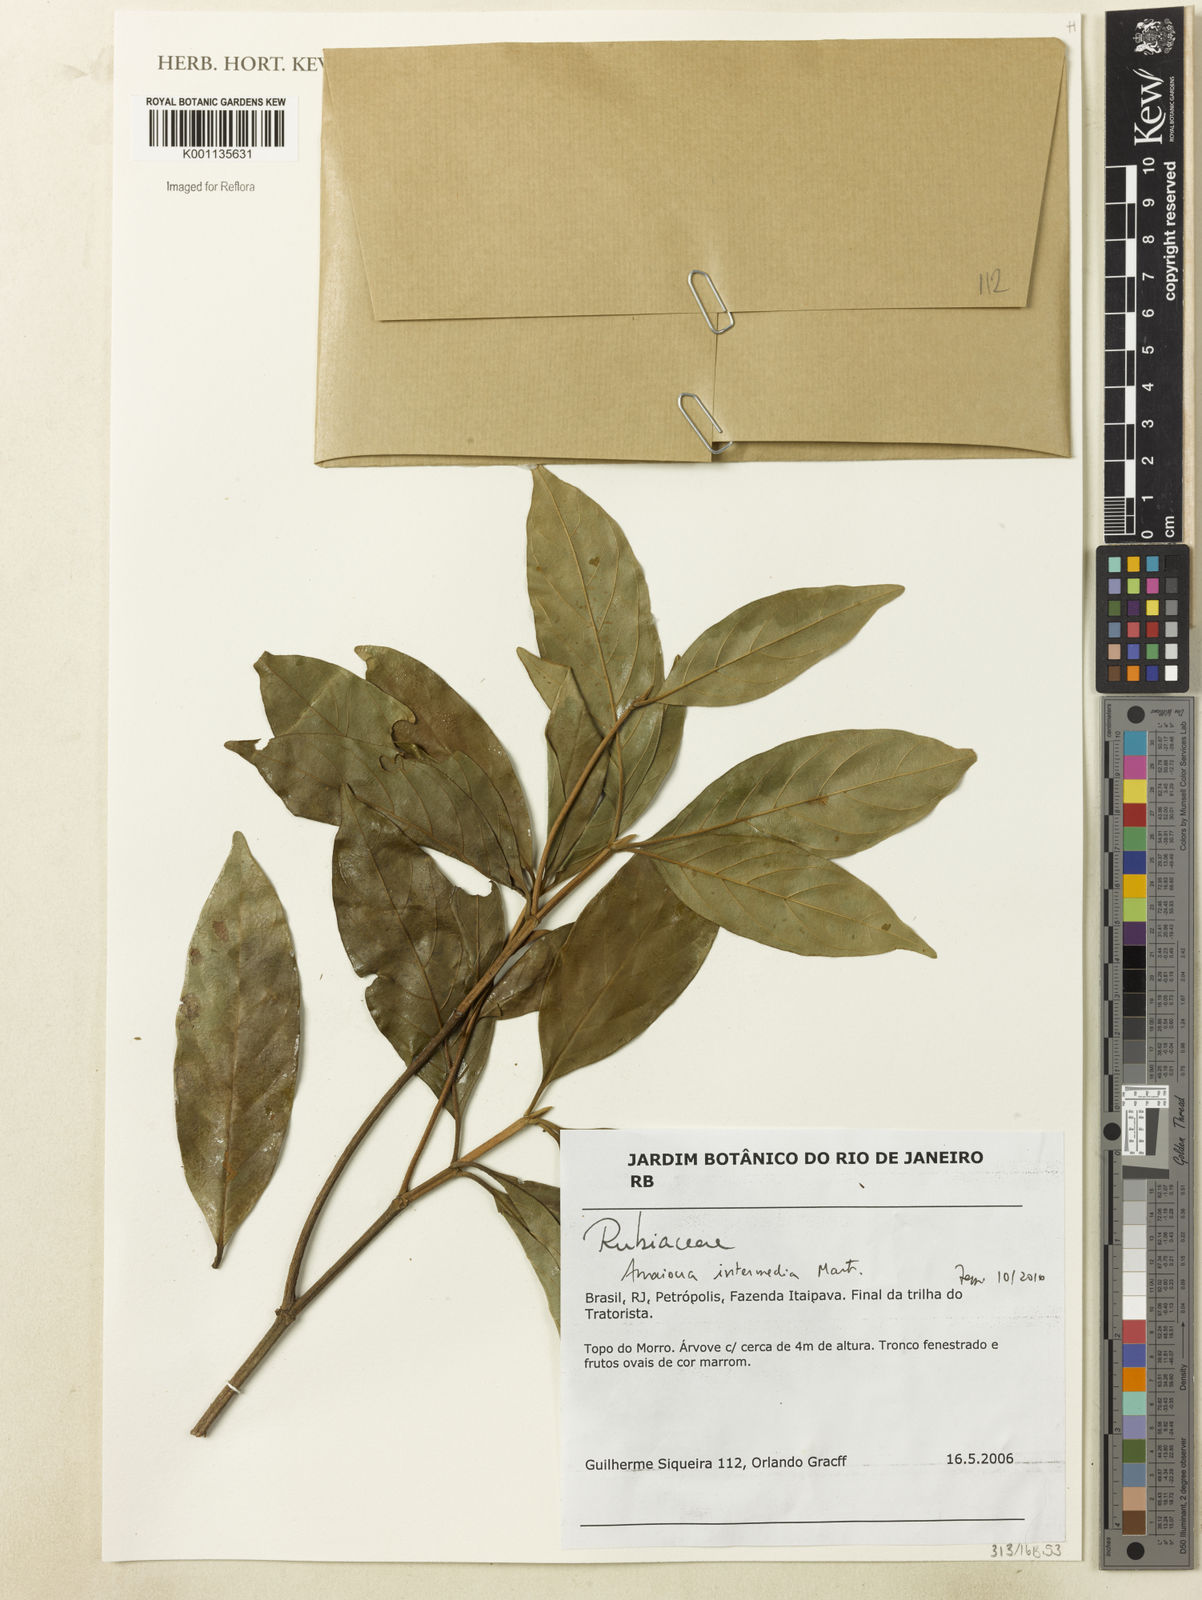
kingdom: Plantae
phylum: Tracheophyta
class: Magnoliopsida
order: Gentianales
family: Rubiaceae
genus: Amaioua
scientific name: Amaioua intermedia
